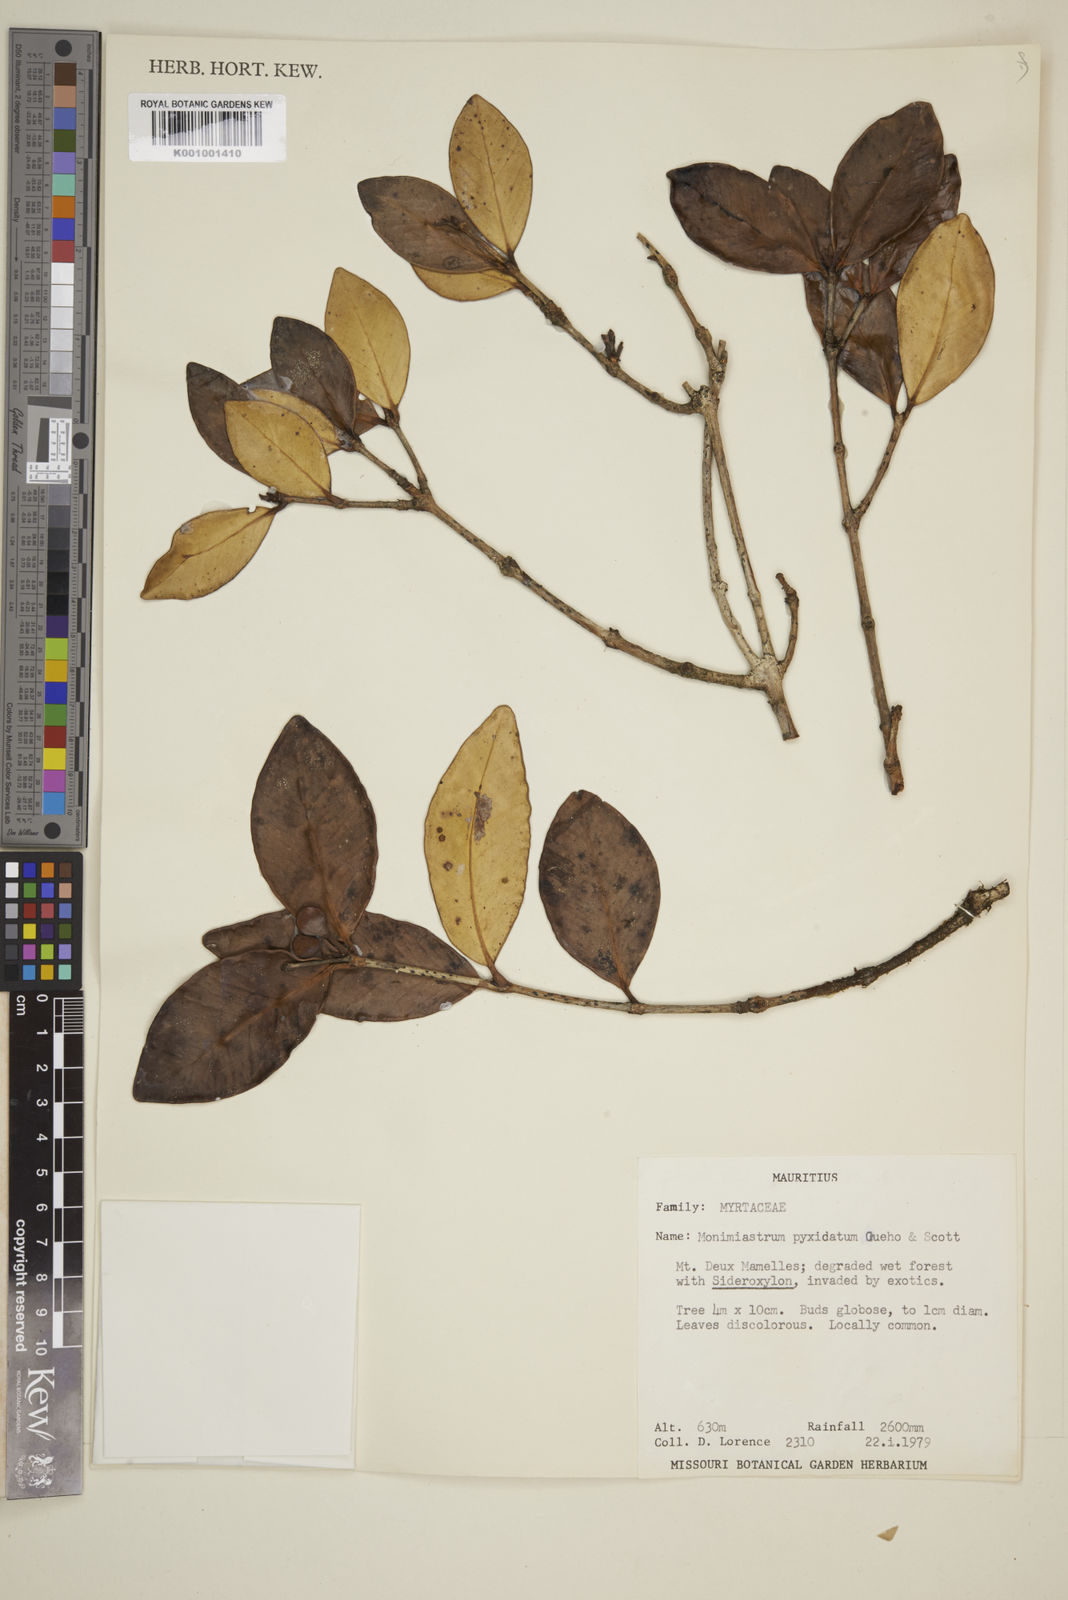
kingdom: Plantae
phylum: Tracheophyta
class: Magnoliopsida
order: Myrtales
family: Myrtaceae
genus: Eugenia
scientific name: Eugenia pyxidata
